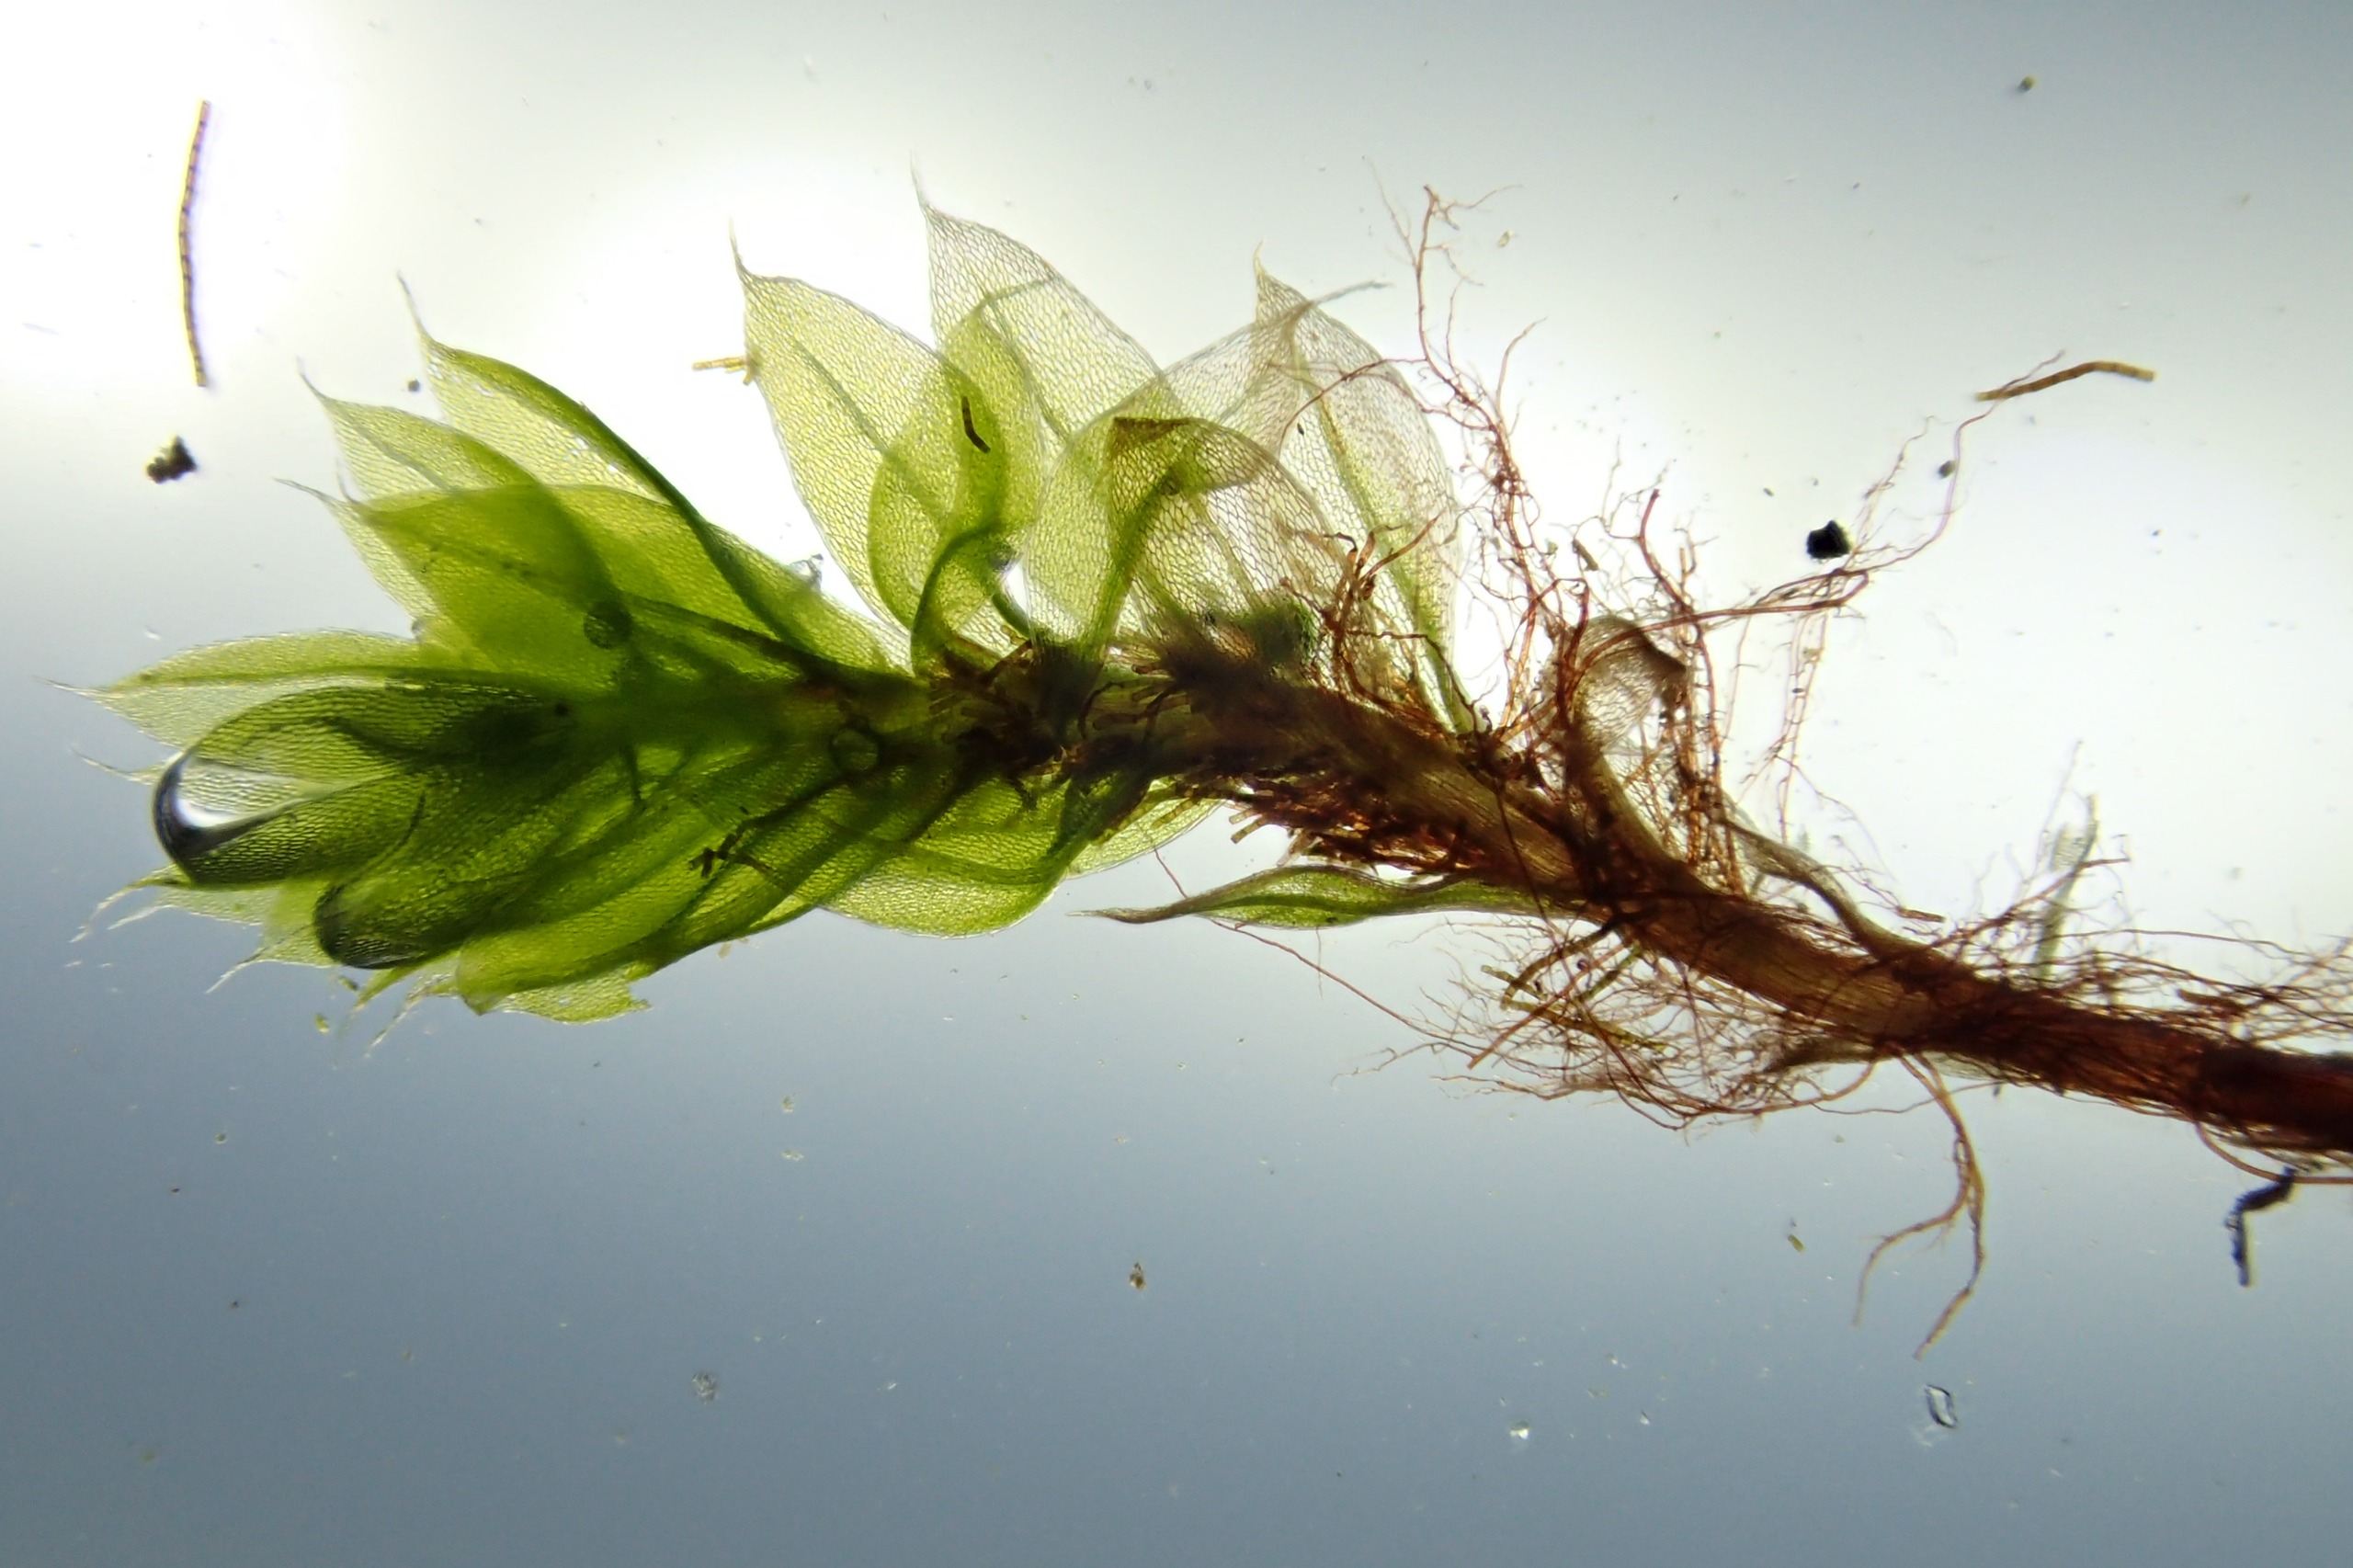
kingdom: Plantae
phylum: Bryophyta
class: Bryopsida
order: Bryales
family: Bryaceae
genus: Rosulabryum
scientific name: Rosulabryum moravicum
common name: Bark-bryum
